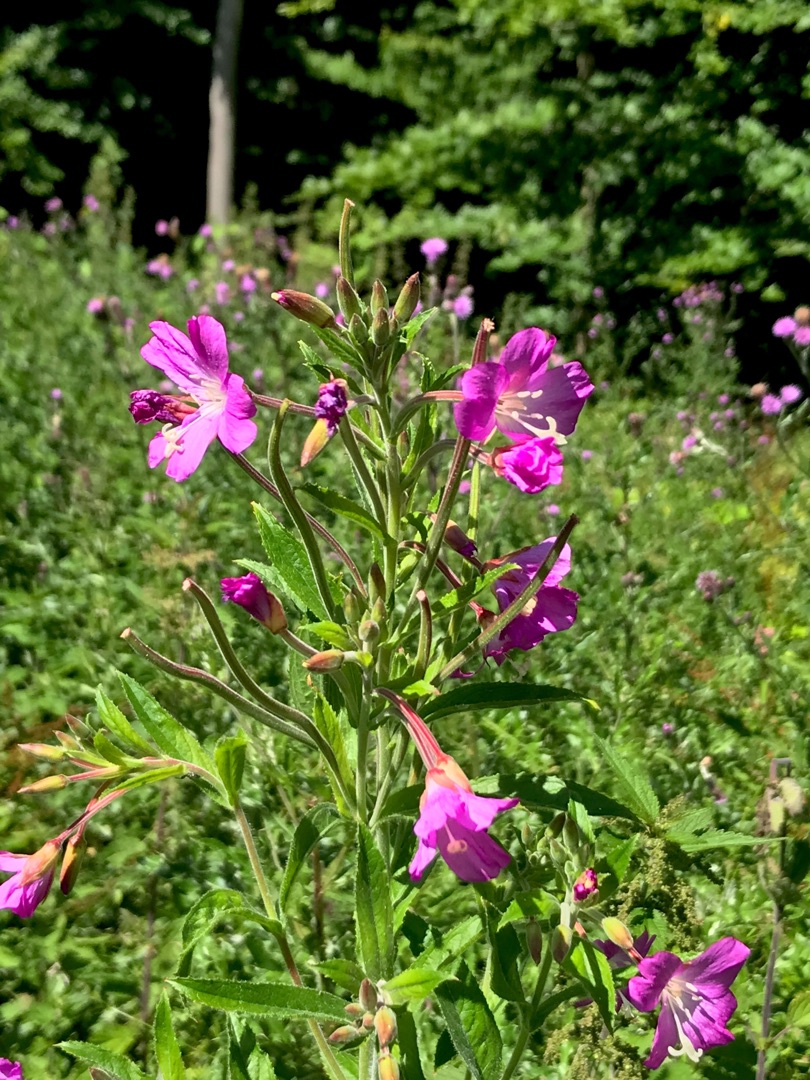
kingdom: Plantae
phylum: Tracheophyta
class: Magnoliopsida
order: Myrtales
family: Onagraceae
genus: Epilobium
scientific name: Epilobium hirsutum
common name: Lådden dueurt
